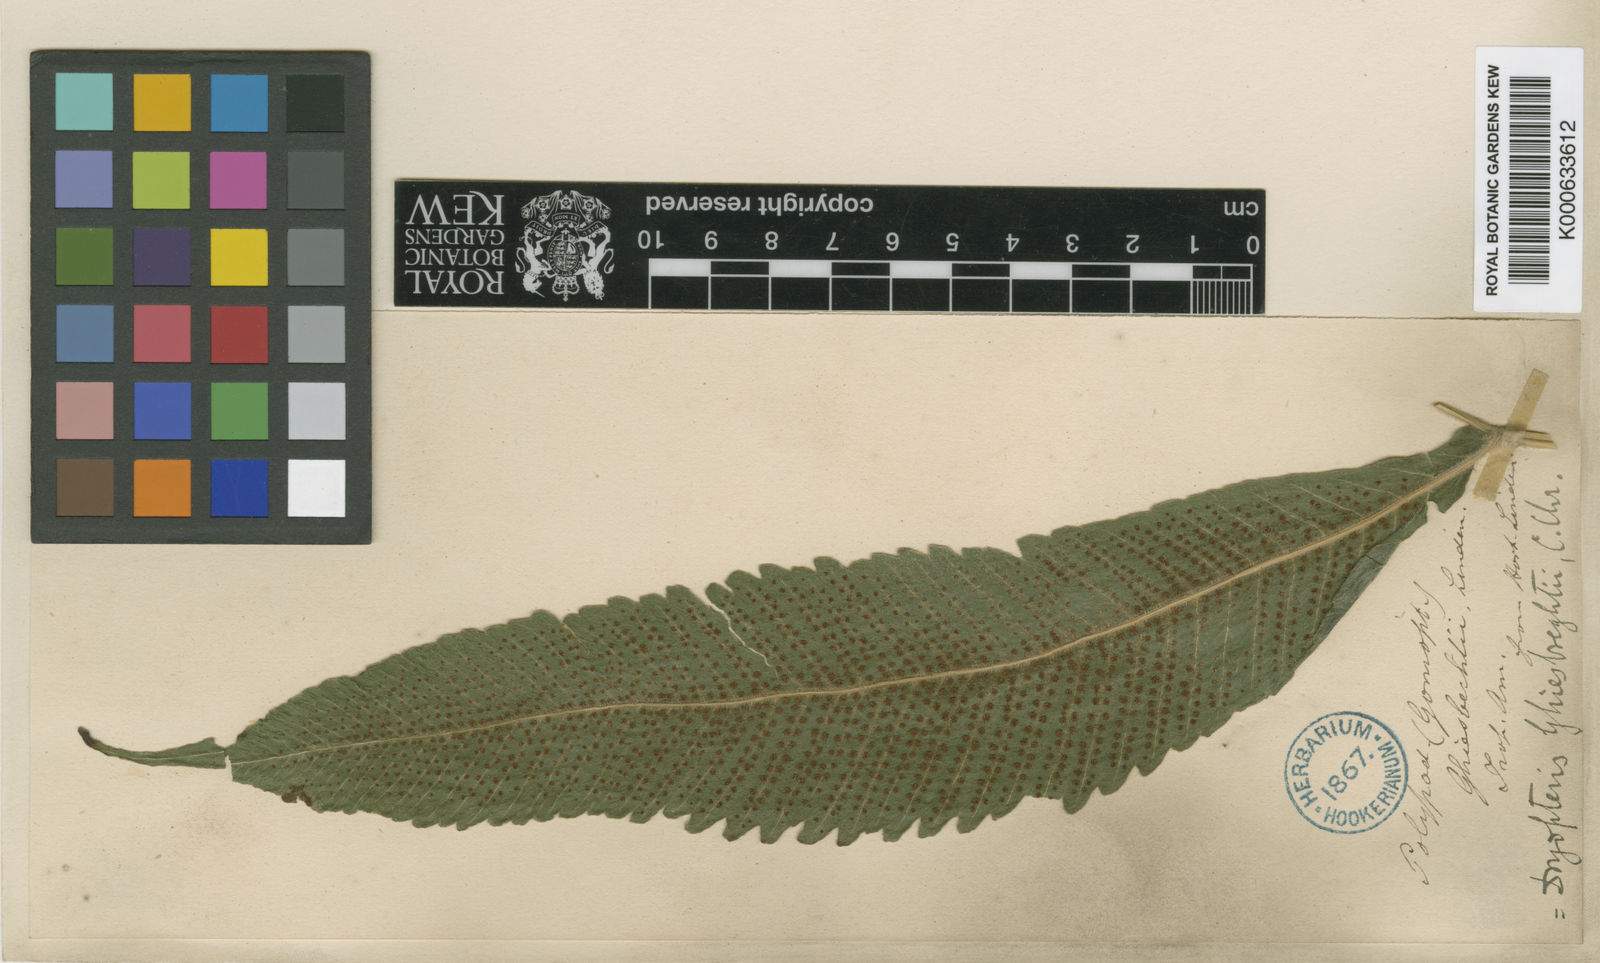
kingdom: Plantae
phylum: Tracheophyta
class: Polypodiopsida
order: Polypodiales
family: Thelypteridaceae
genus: Goniopteris
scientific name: Goniopteris ghiesbrechtii
